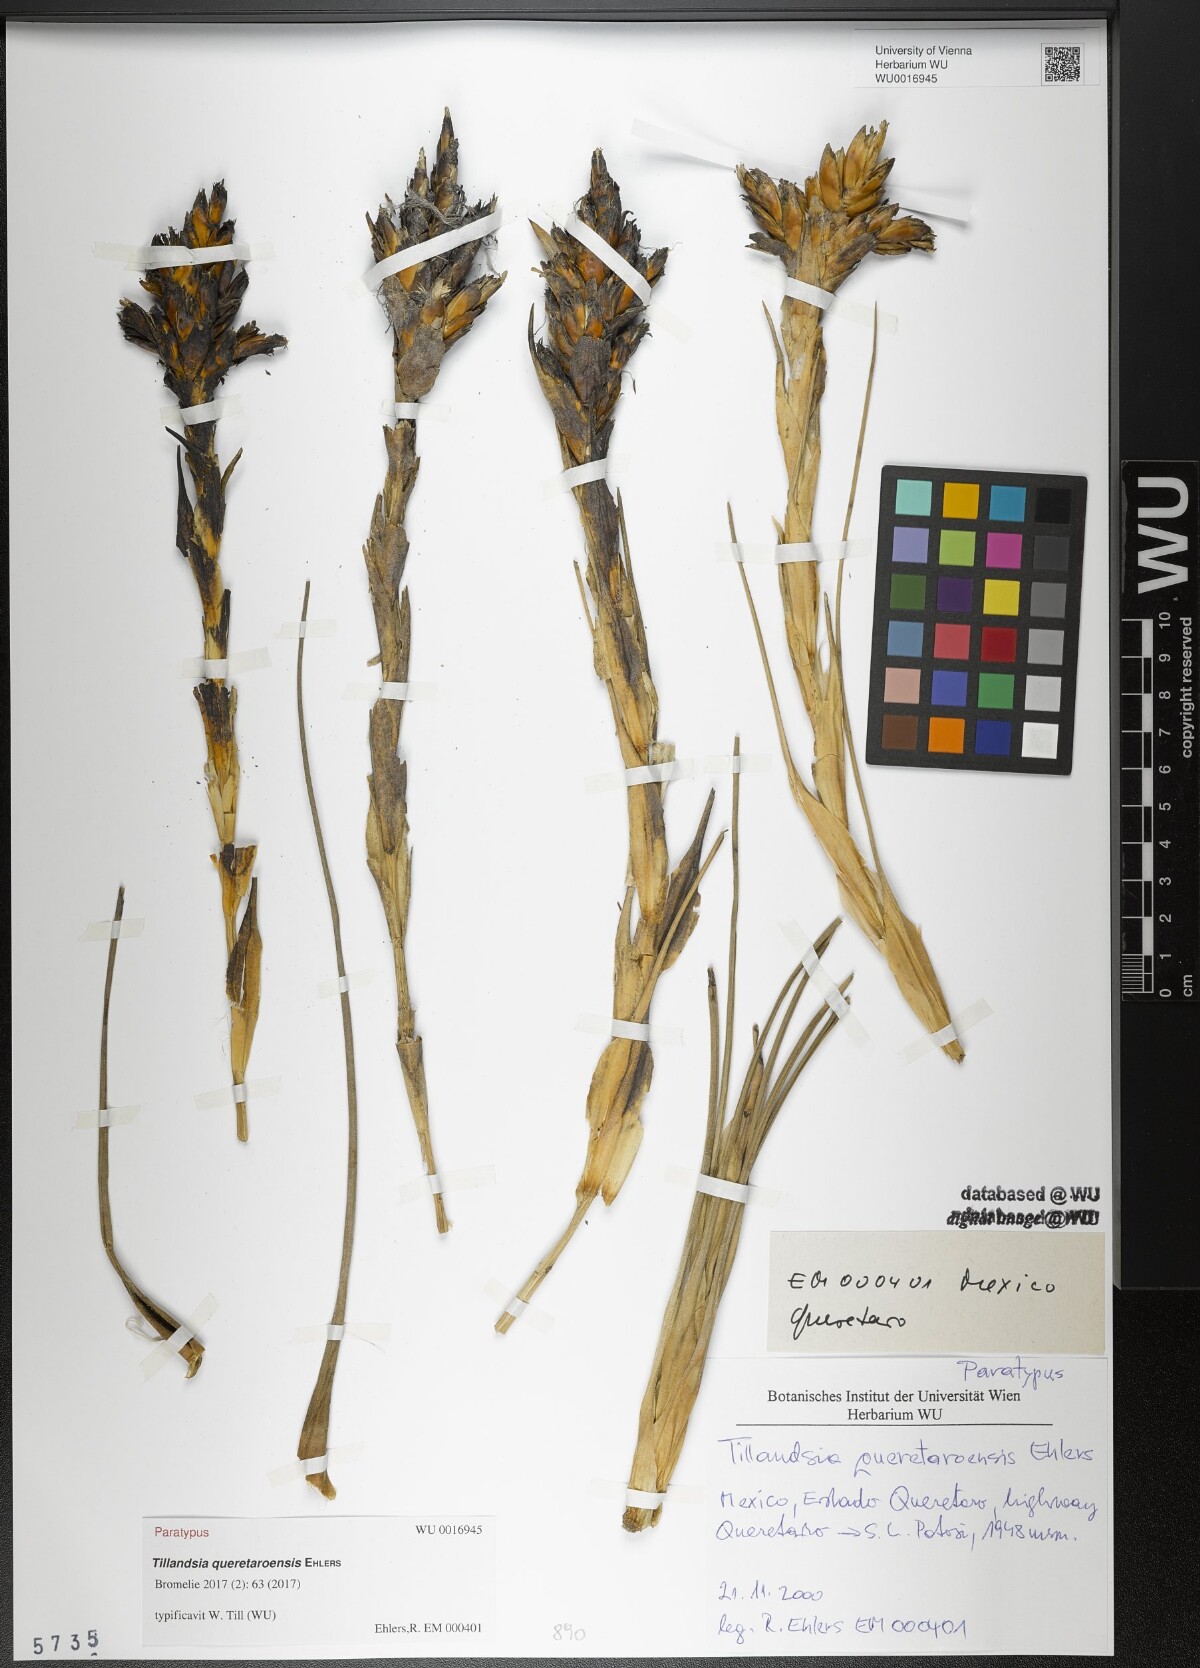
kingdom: Plantae
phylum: Tracheophyta
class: Liliopsida
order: Poales
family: Bromeliaceae
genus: Tillandsia
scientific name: Tillandsia queretaroensis
